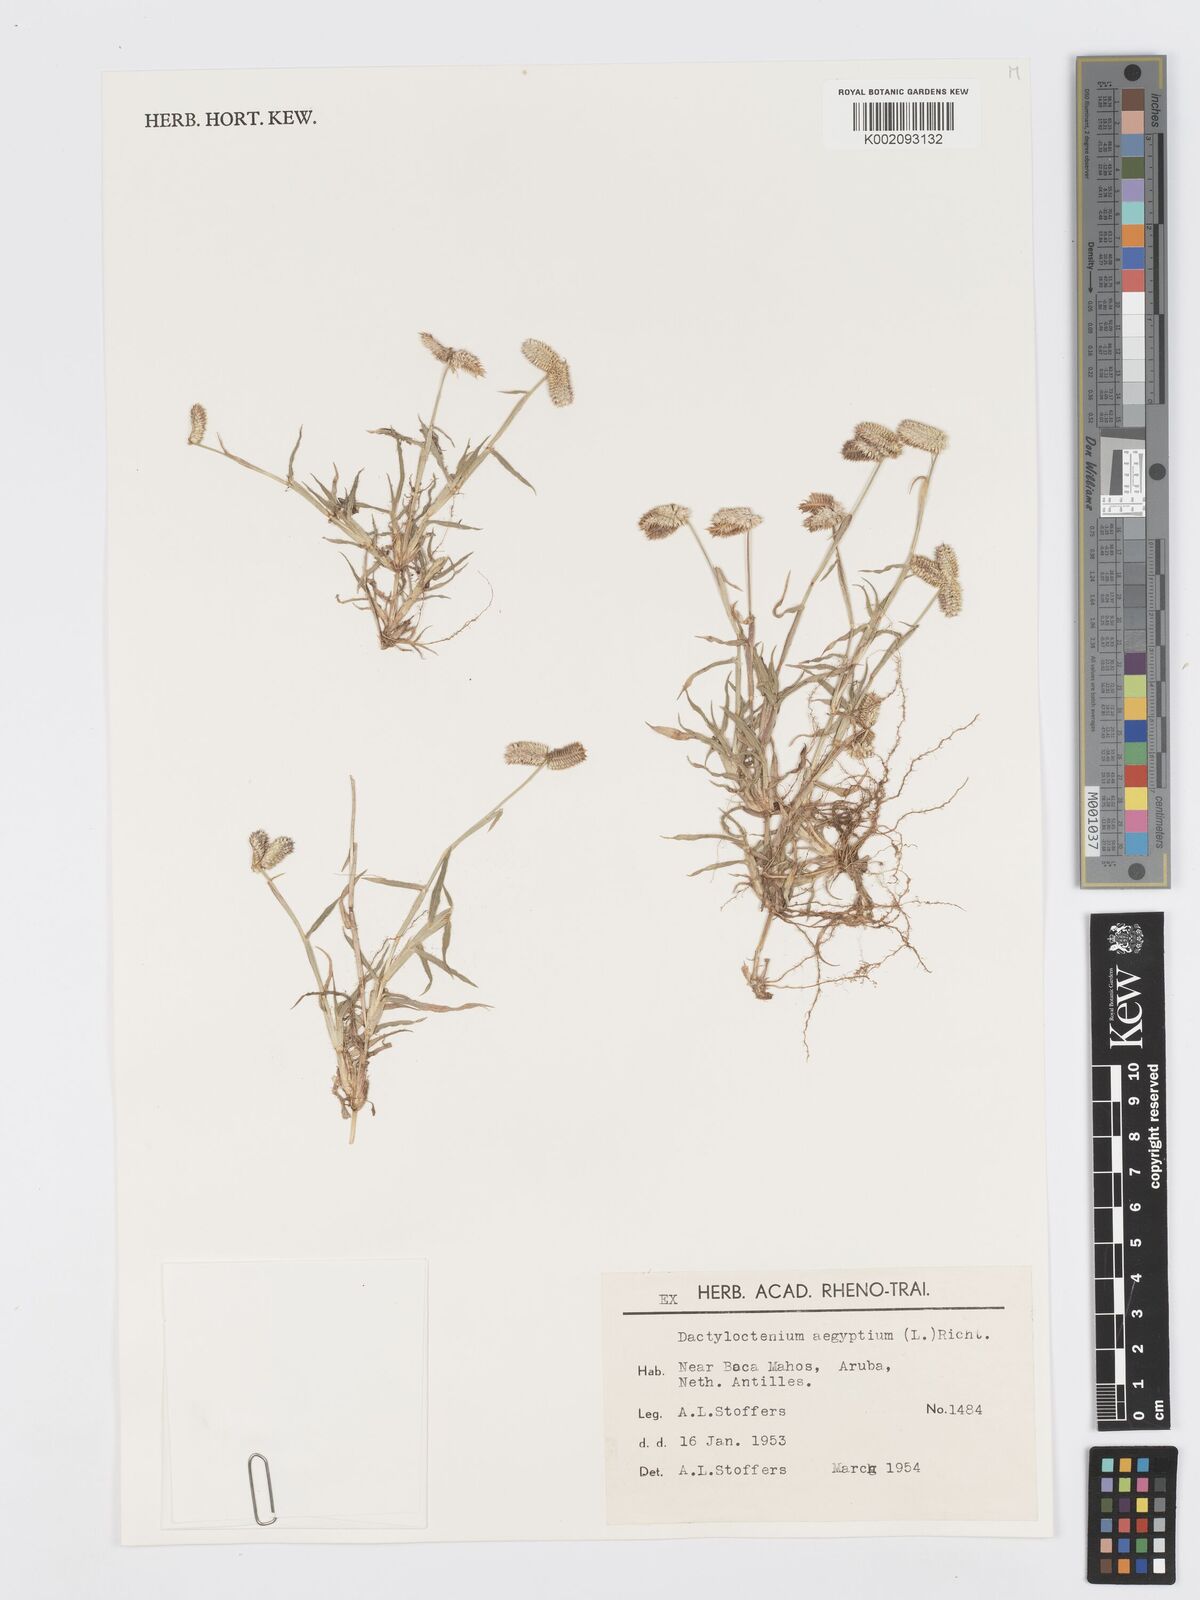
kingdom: Plantae
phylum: Tracheophyta
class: Liliopsida
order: Poales
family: Poaceae
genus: Dactyloctenium
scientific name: Dactyloctenium aegyptium
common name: Egyptian grass
